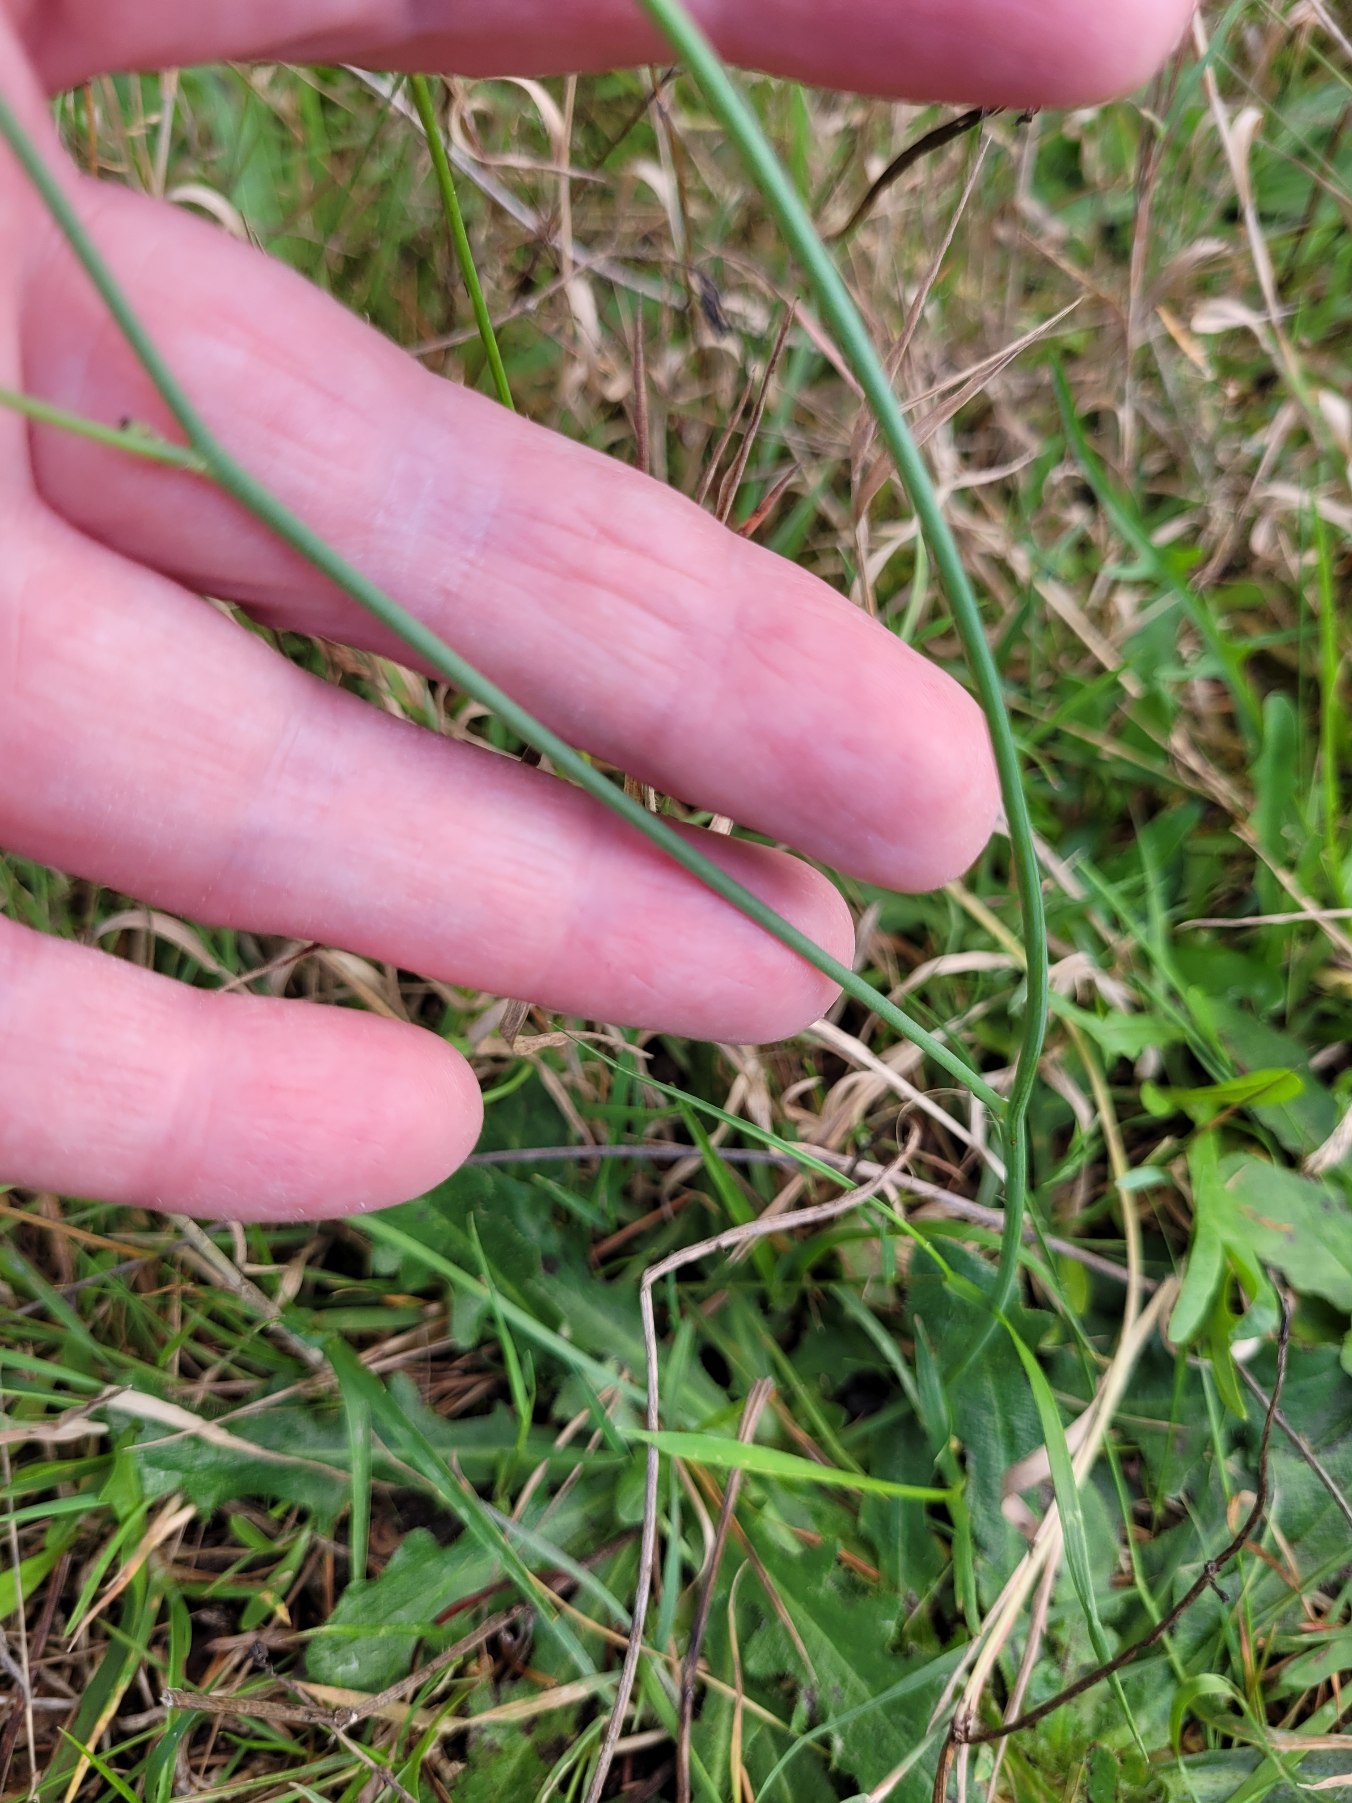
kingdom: Plantae
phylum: Tracheophyta
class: Magnoliopsida
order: Asterales
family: Asteraceae
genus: Hypochaeris
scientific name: Hypochaeris radicata
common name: Almindelig kongepen
